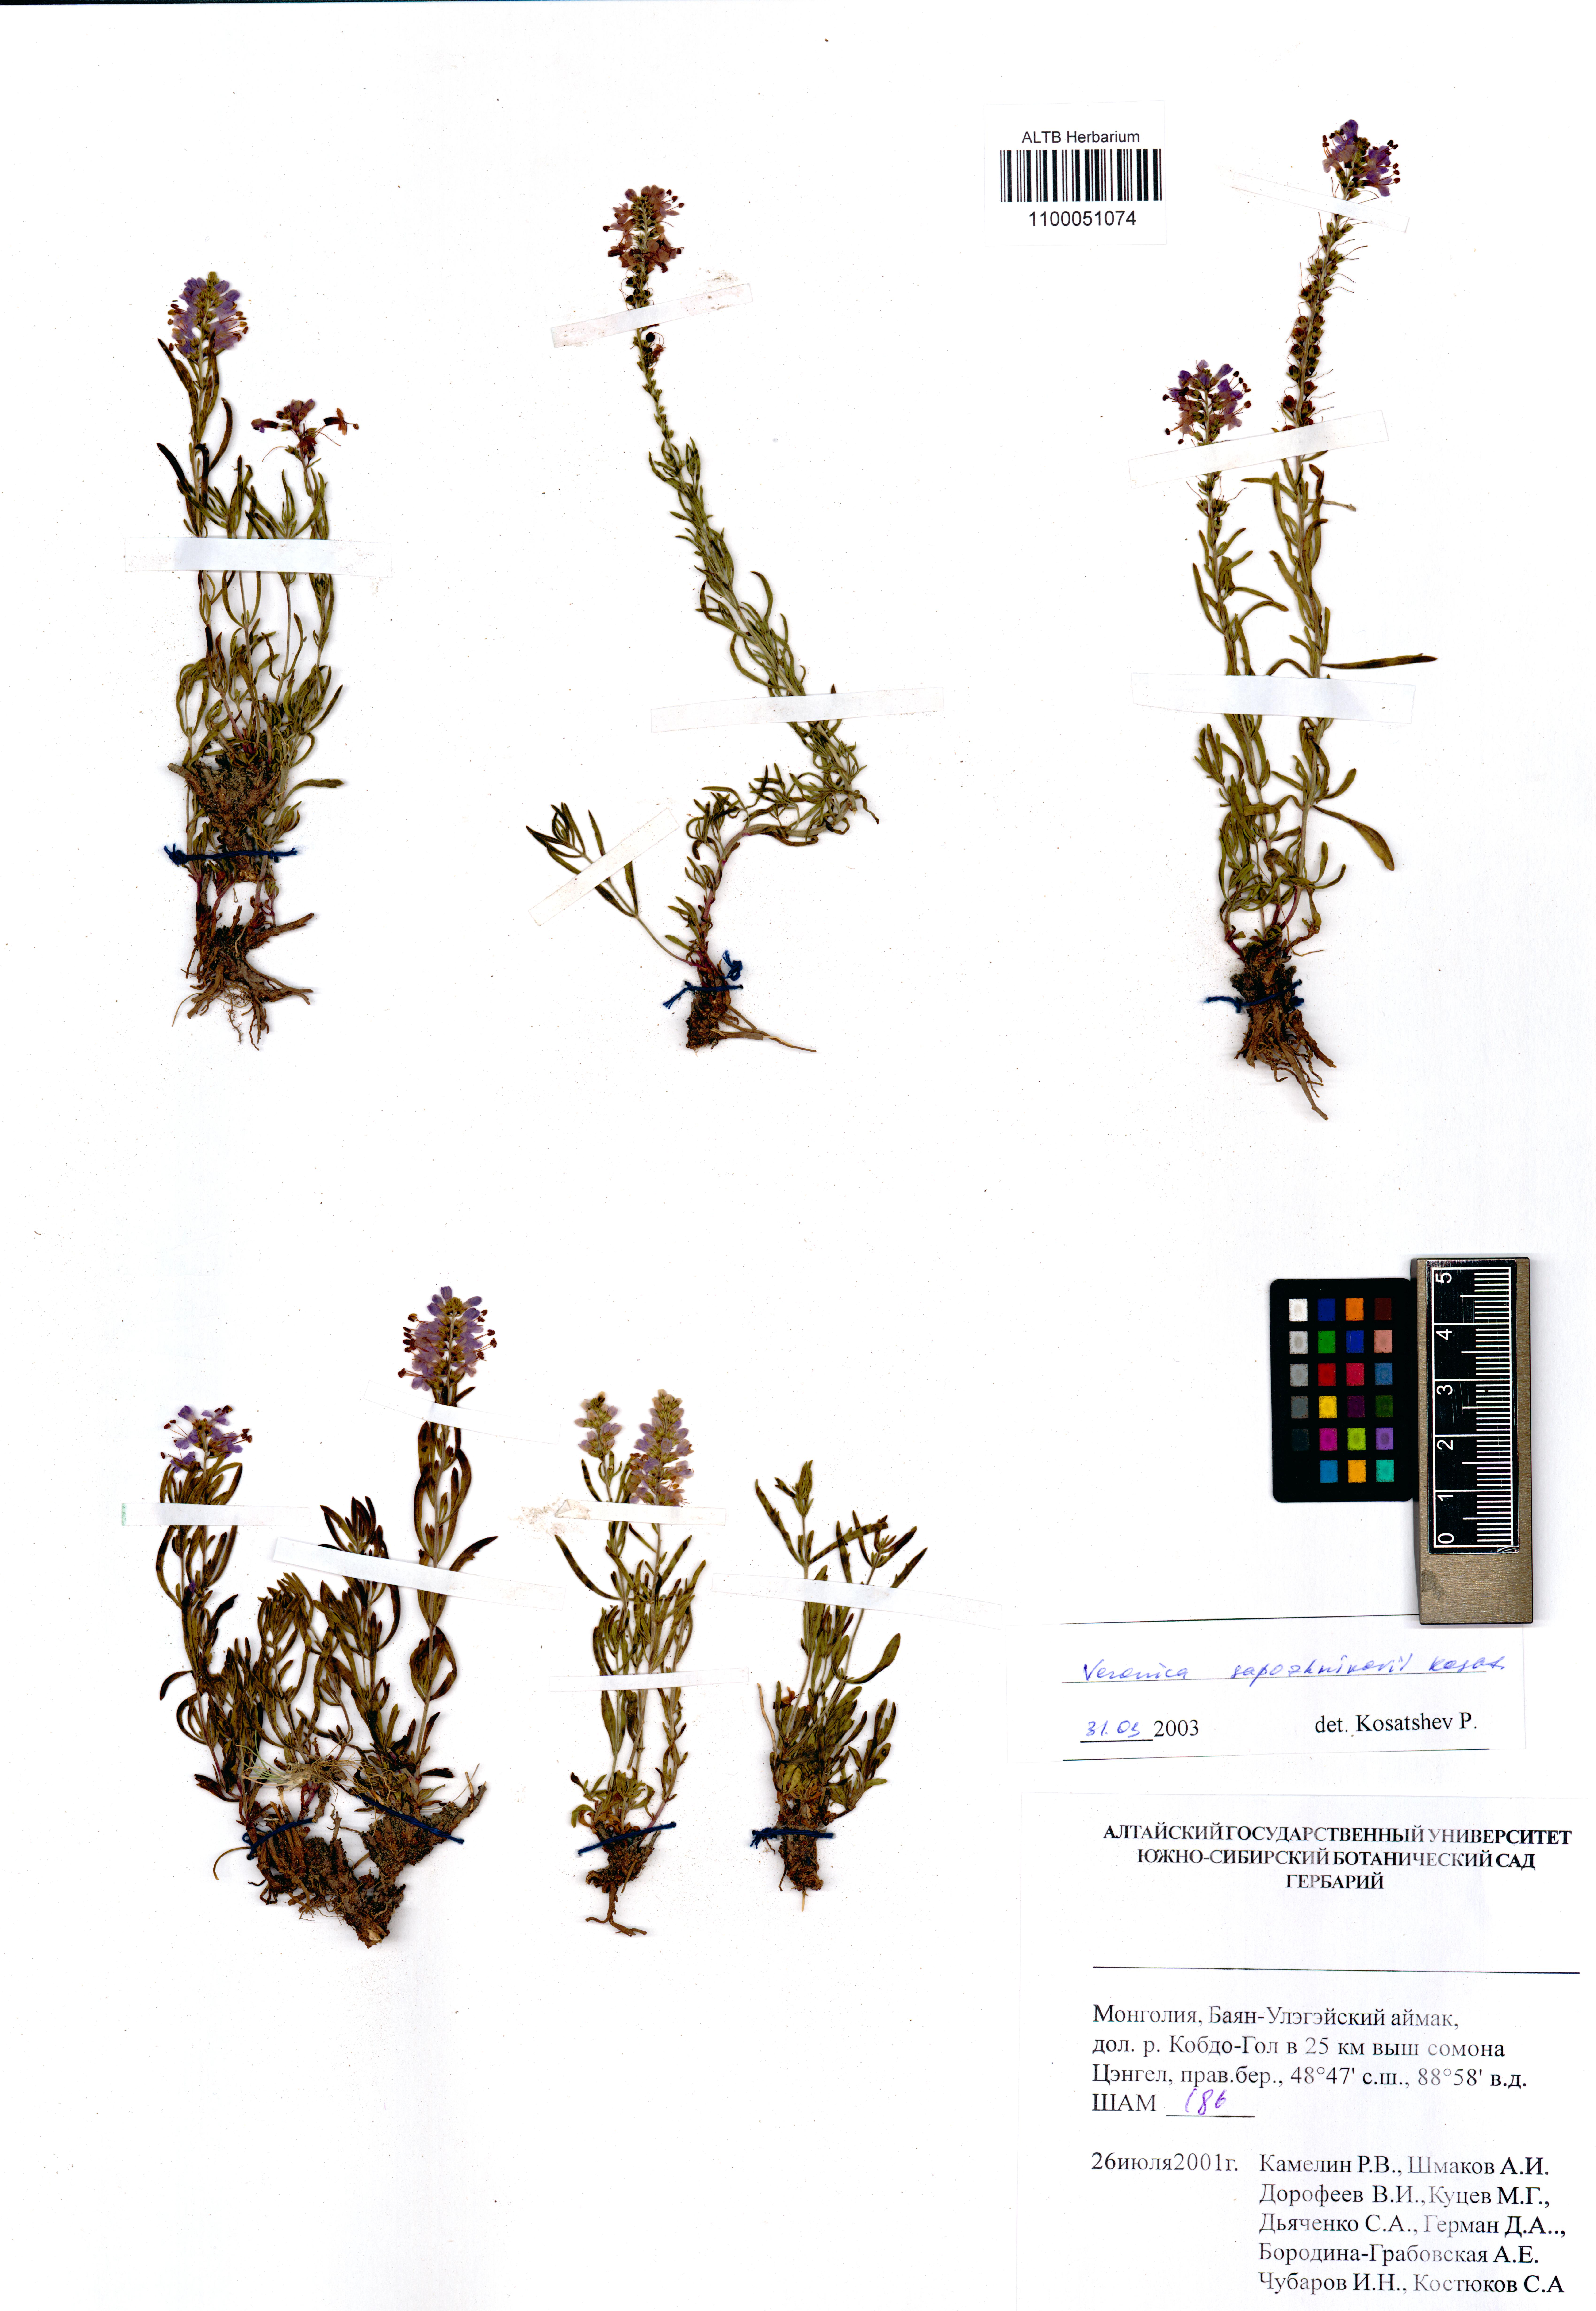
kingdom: Plantae
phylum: Tracheophyta
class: Magnoliopsida
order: Lamiales
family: Plantaginaceae
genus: Veronica
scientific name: Veronica sapozhnikovii
